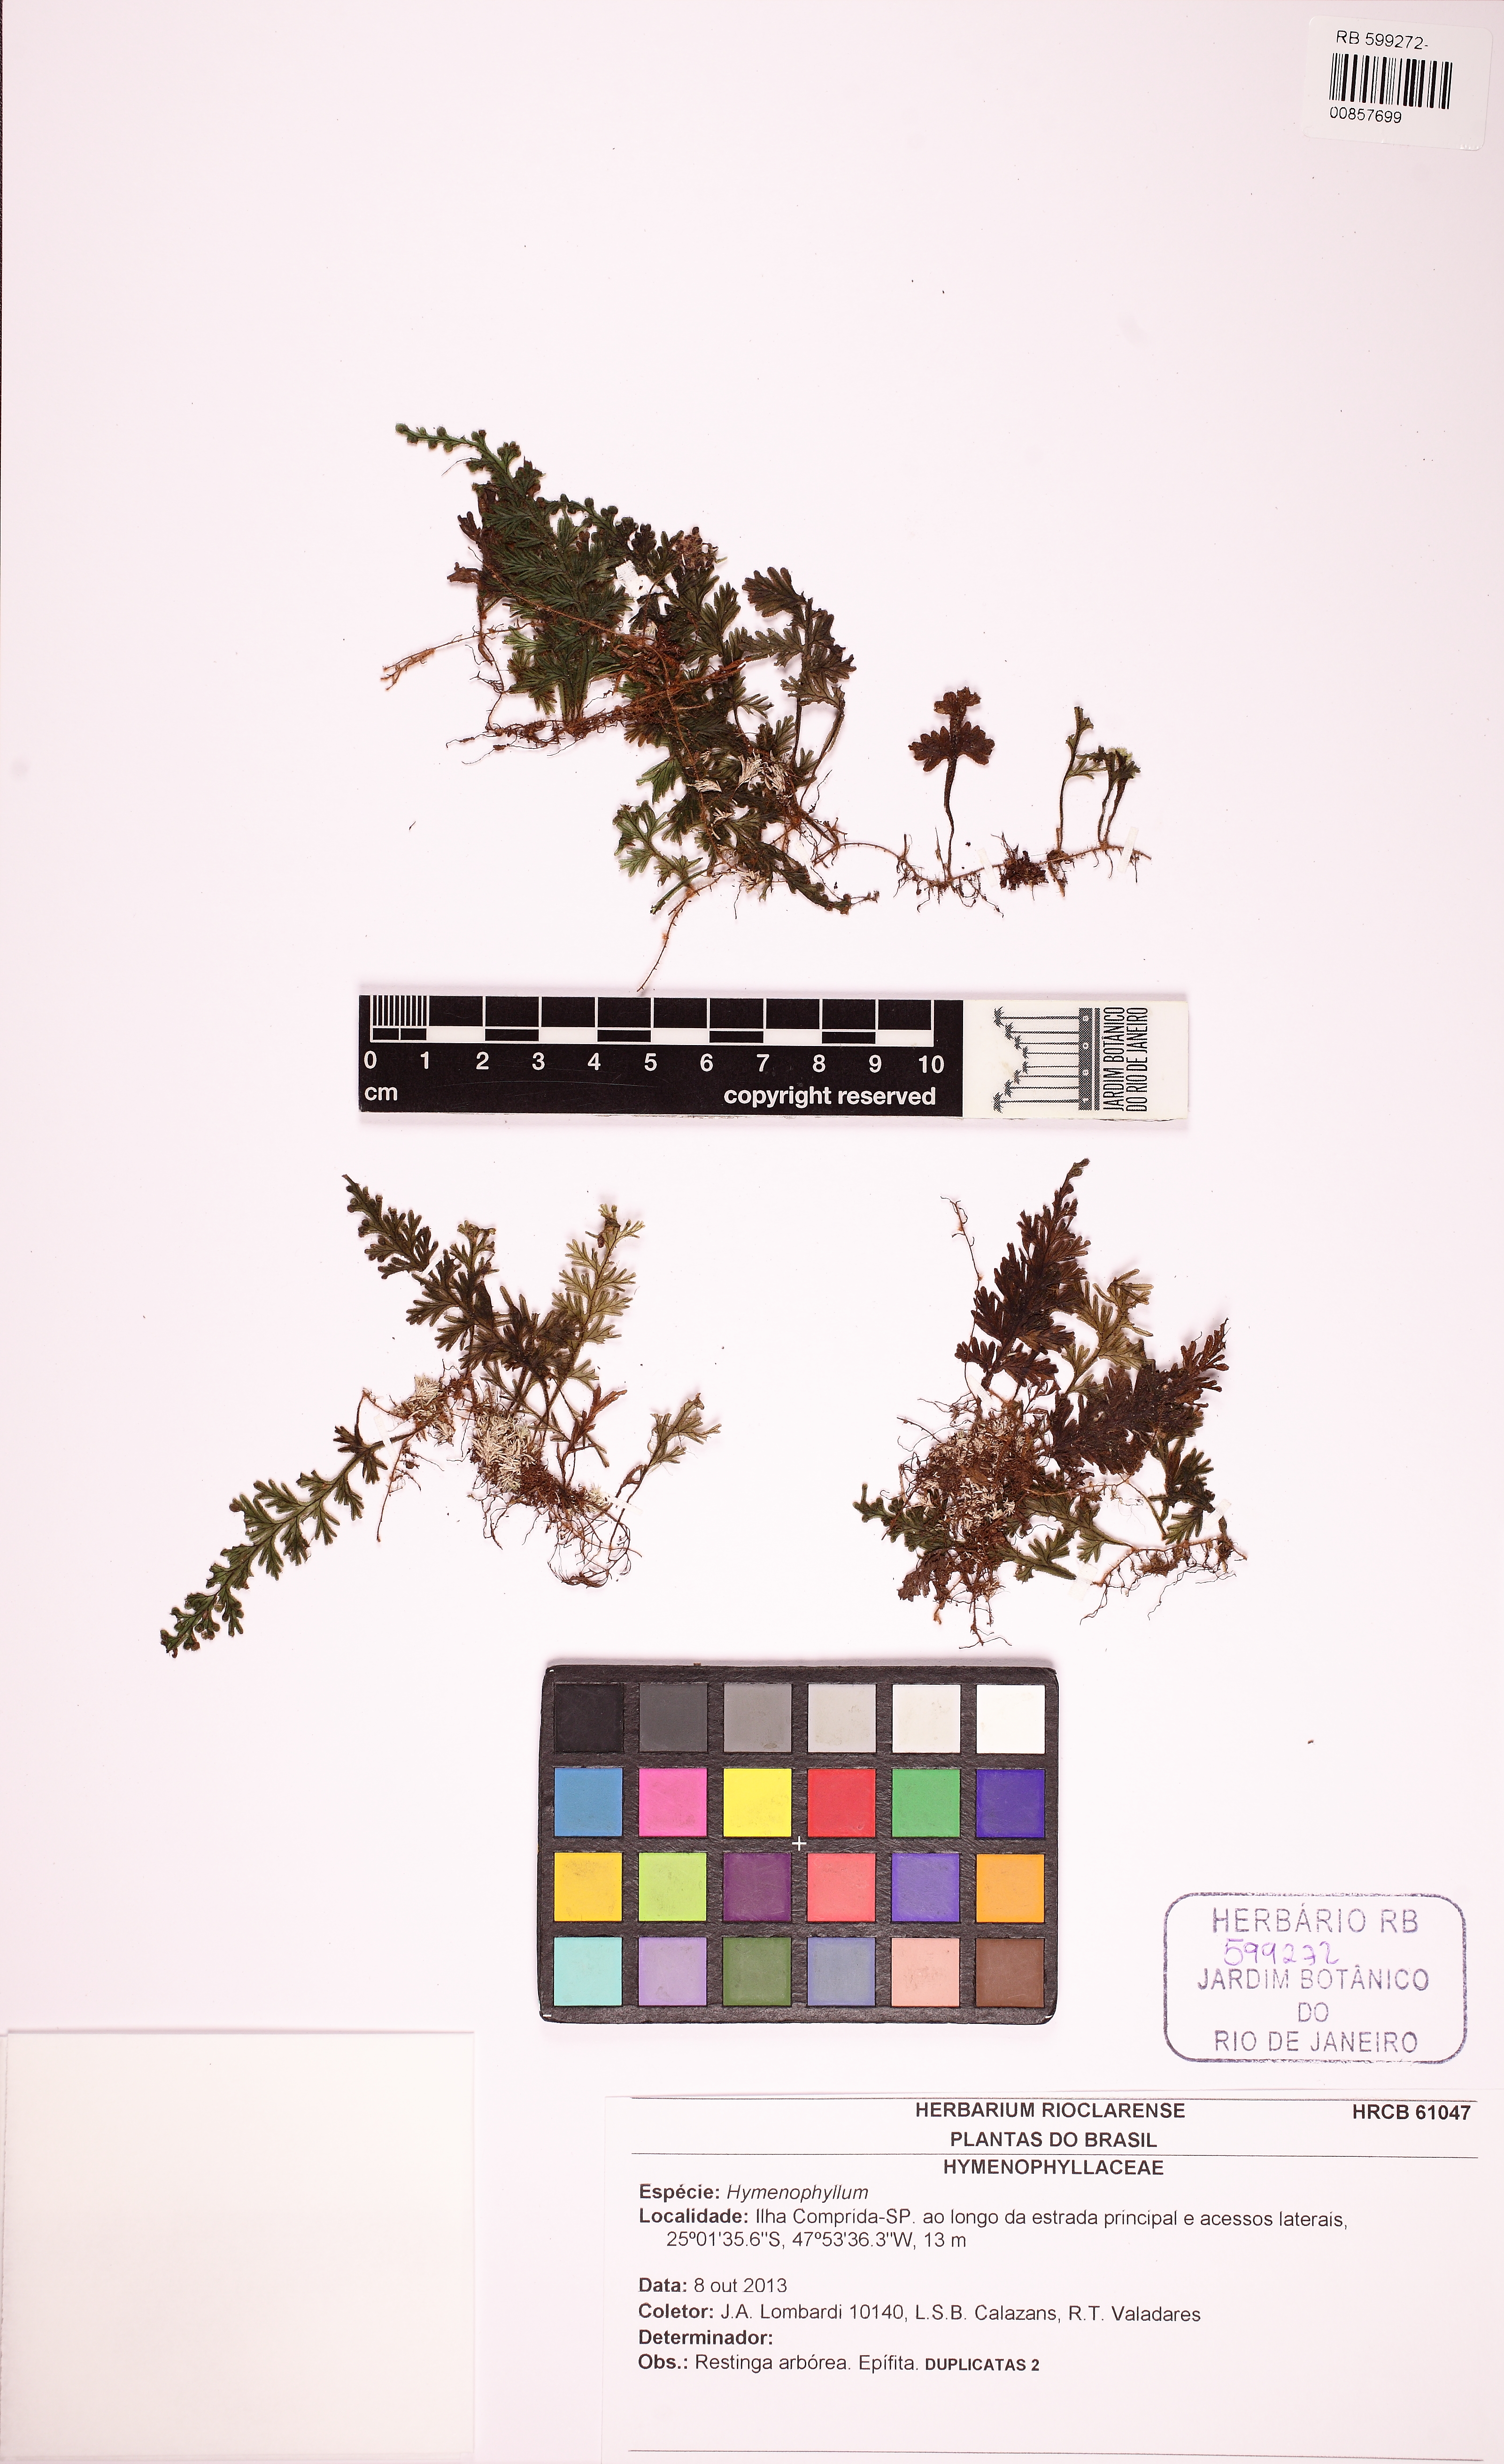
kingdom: Plantae
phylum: Tracheophyta
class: Polypodiopsida
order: Hymenophyllales
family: Hymenophyllaceae
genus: Hymenophyllum
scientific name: Hymenophyllum hirsutum
